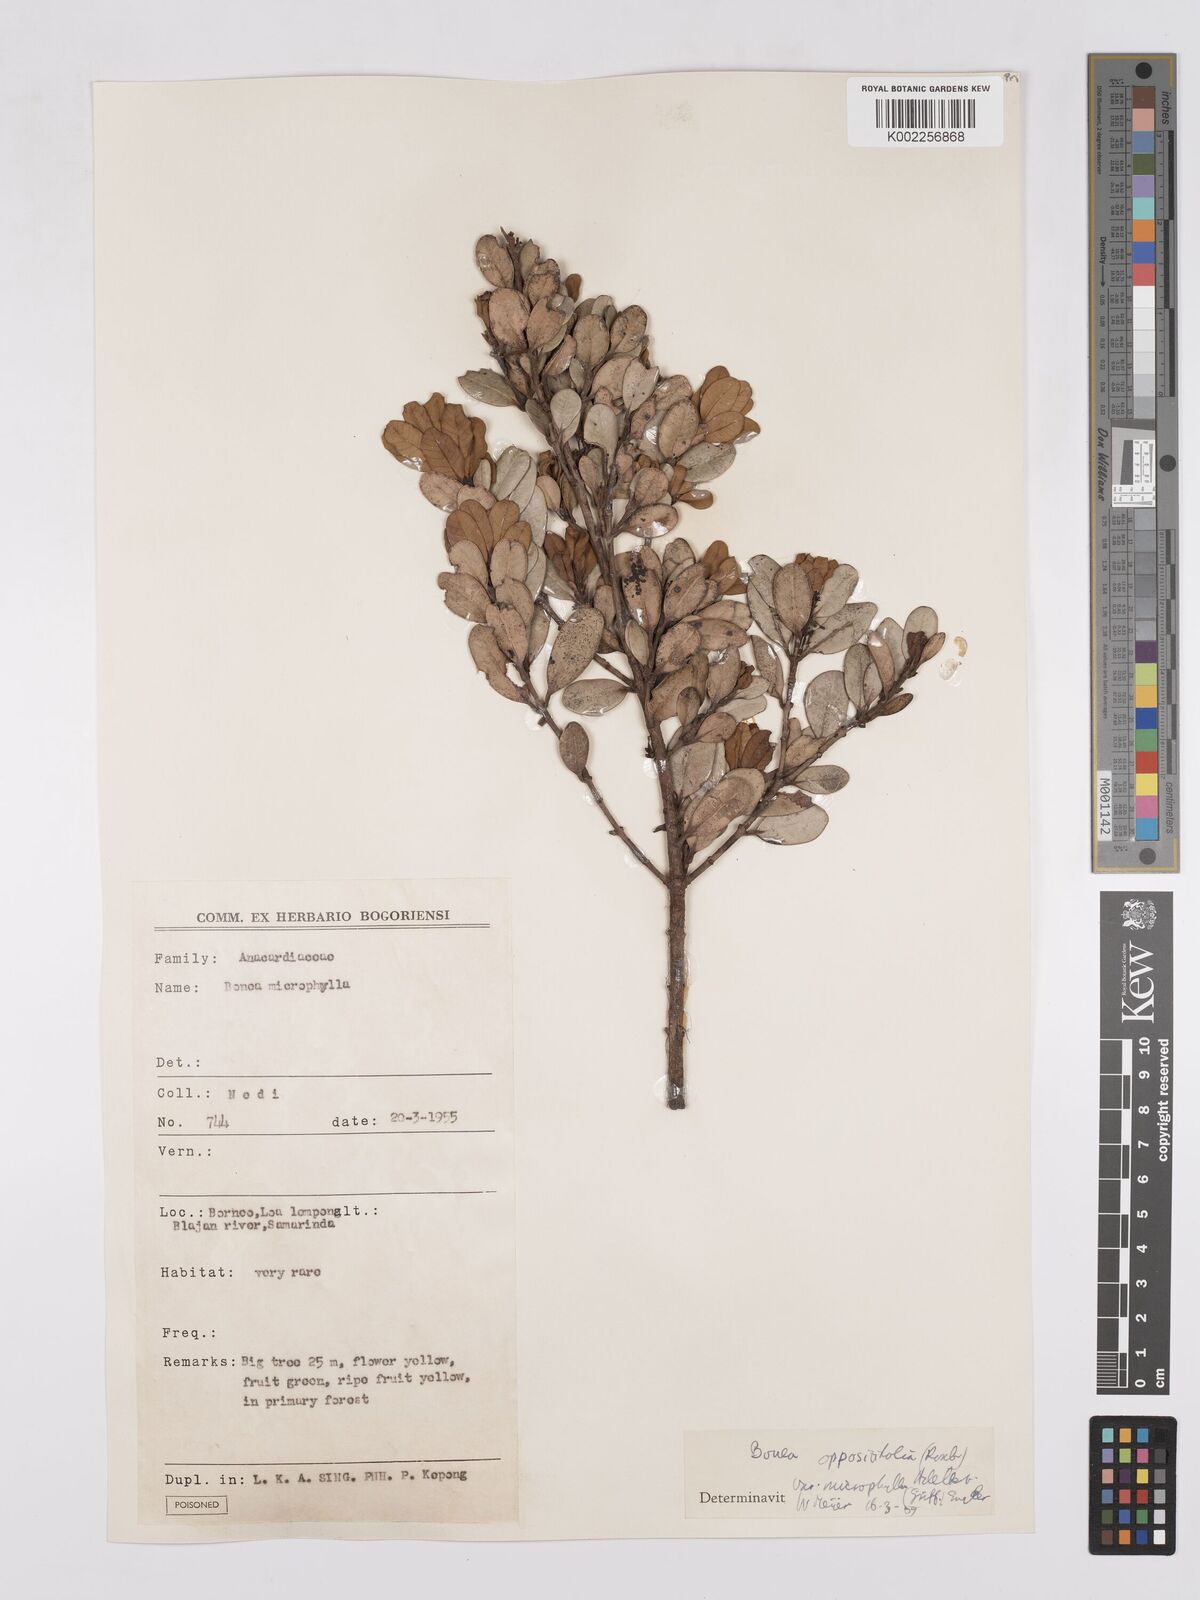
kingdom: Plantae
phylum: Tracheophyta
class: Magnoliopsida
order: Sapindales
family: Anacardiaceae
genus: Bouea
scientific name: Bouea oppositifolia
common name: Narrow-leaved kundang
